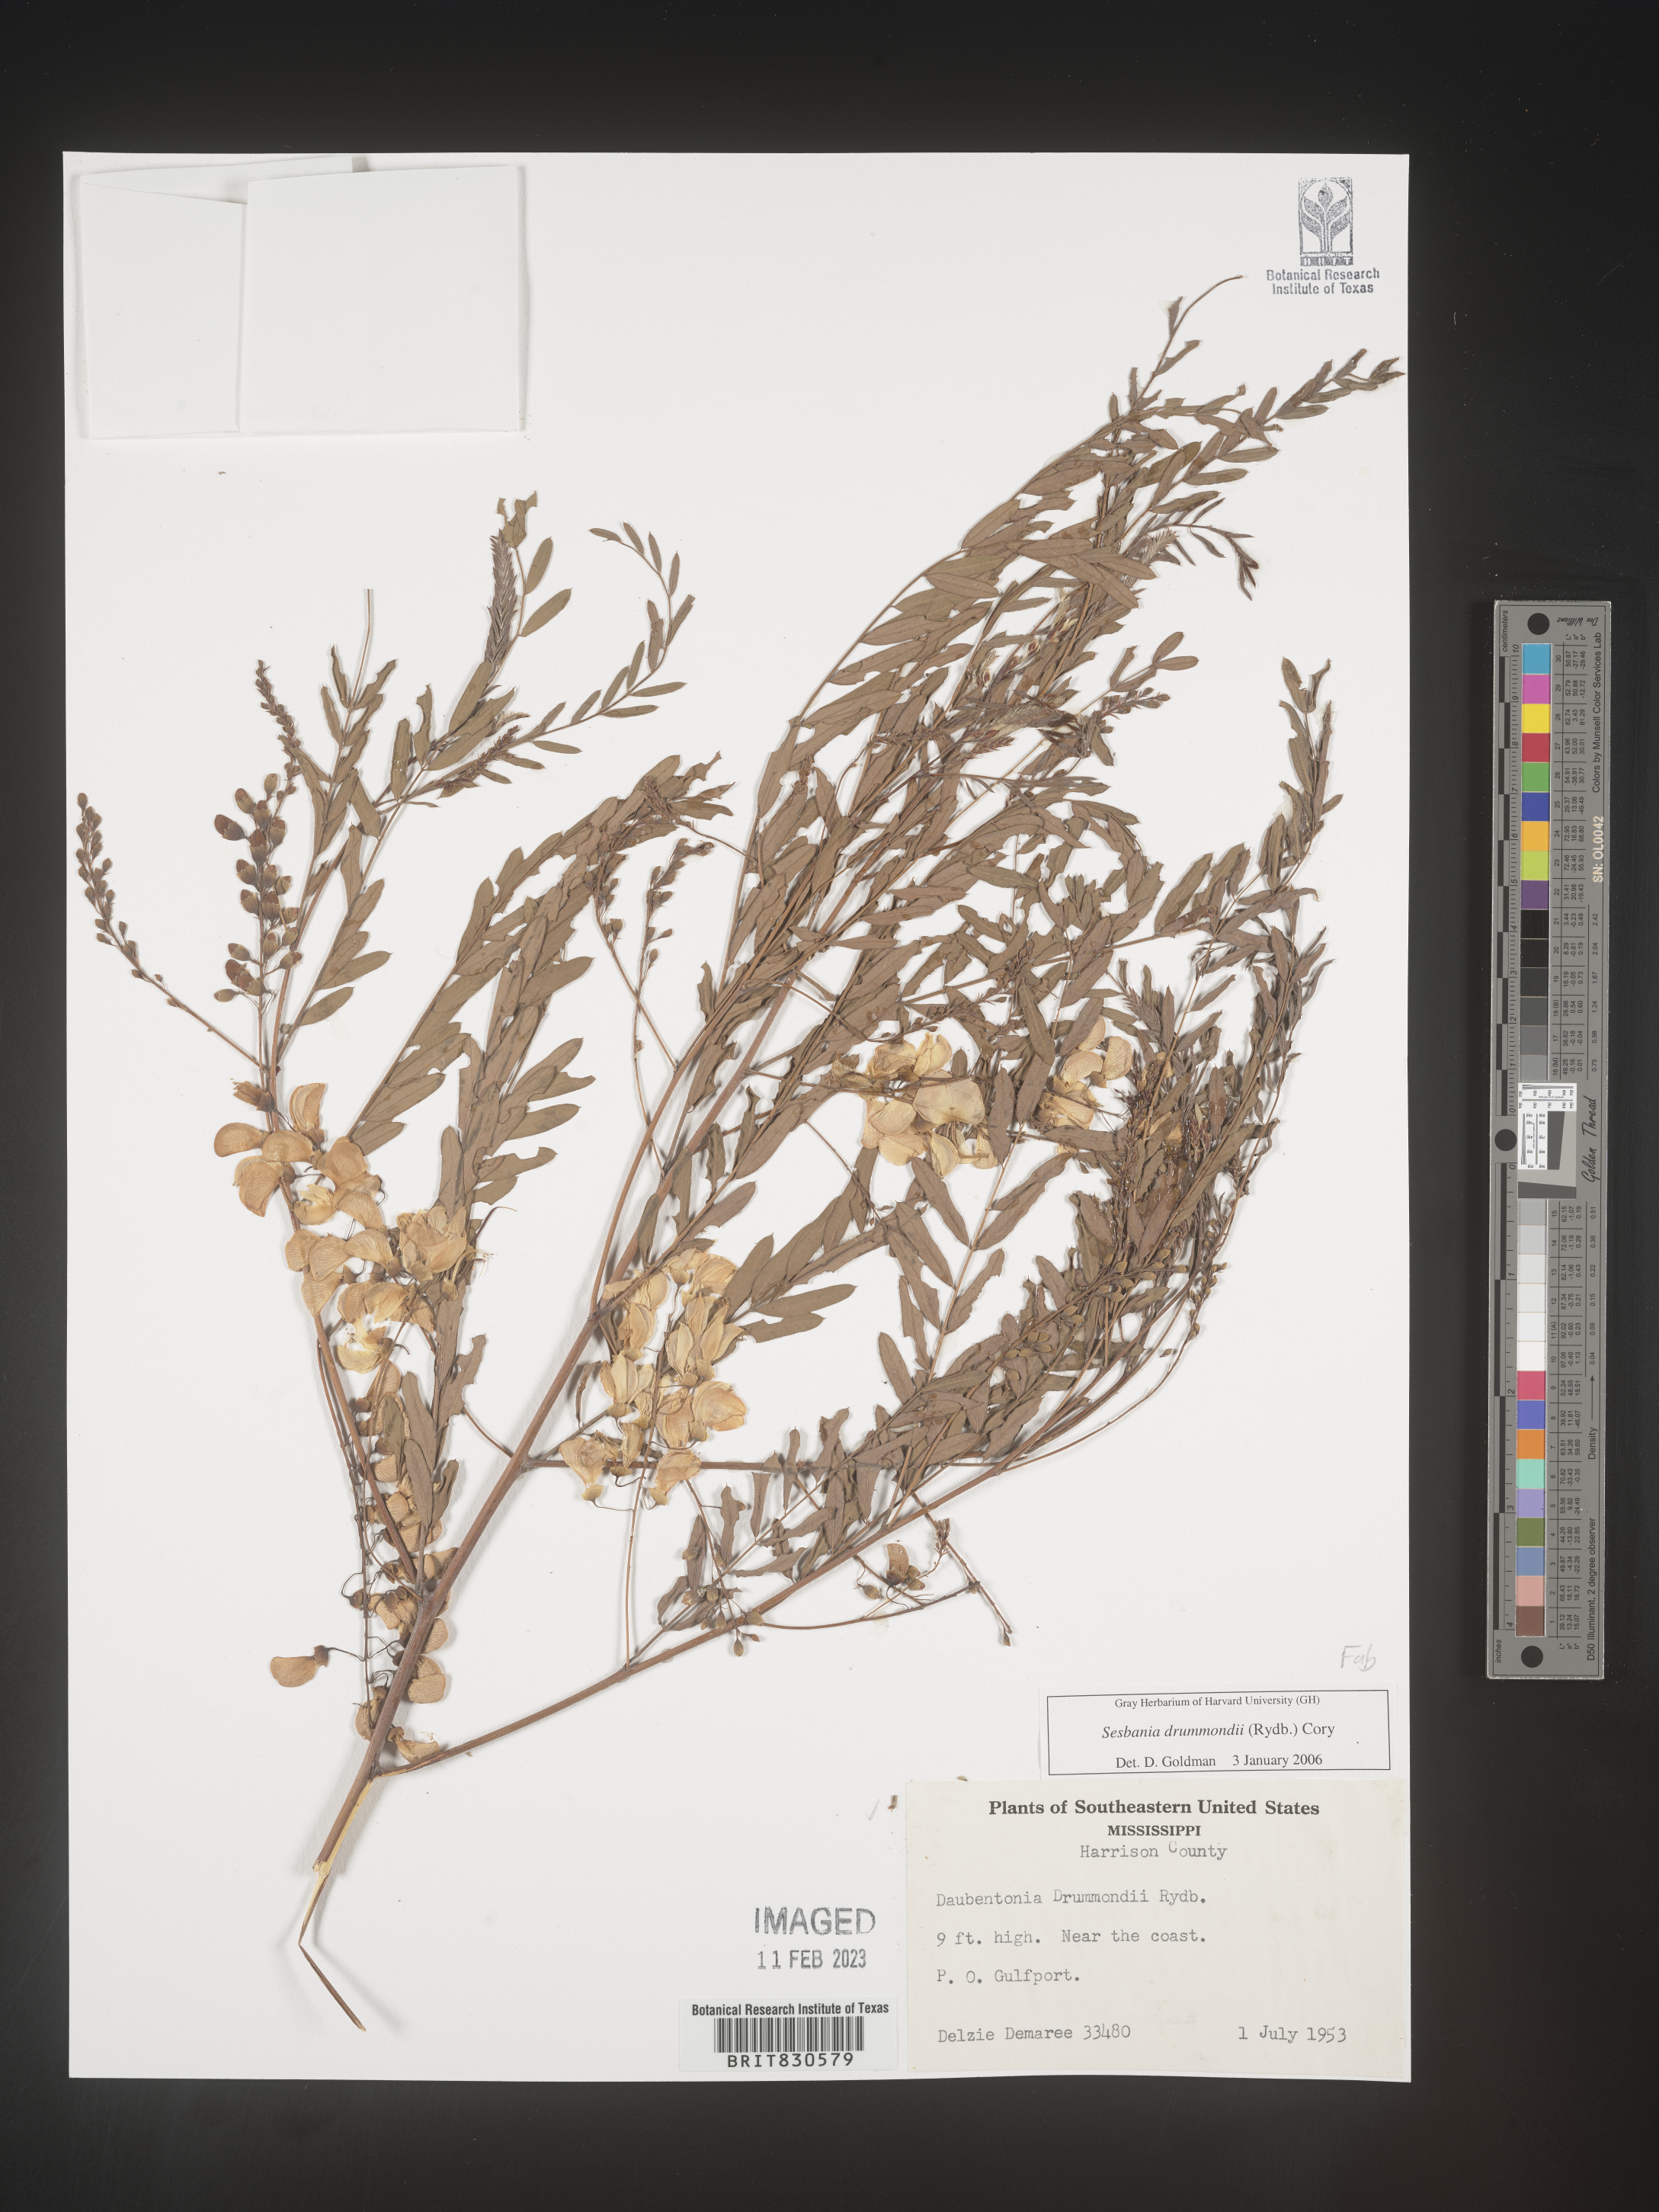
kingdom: Plantae
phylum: Tracheophyta
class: Magnoliopsida
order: Fabales
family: Fabaceae
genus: Sesbania
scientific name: Sesbania drummondii
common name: Poison-bean
